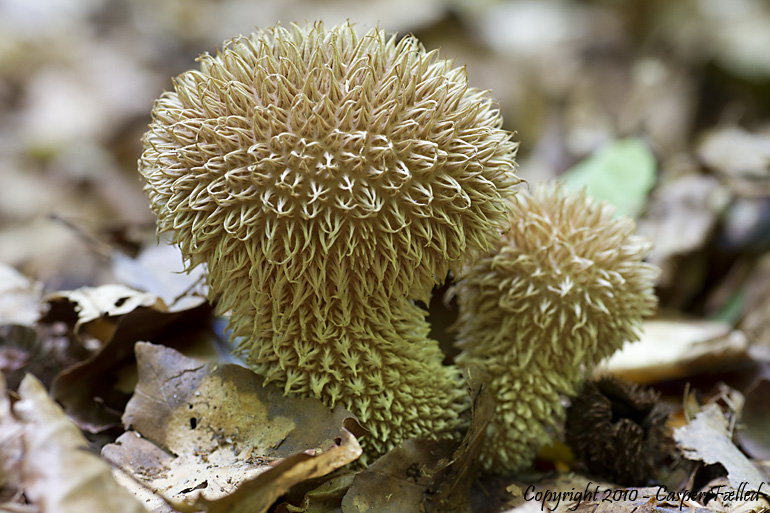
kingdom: Fungi
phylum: Basidiomycota
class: Agaricomycetes
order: Agaricales
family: Lycoperdaceae
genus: Lycoperdon
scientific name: Lycoperdon echinatum
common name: pindsvine-støvbold
